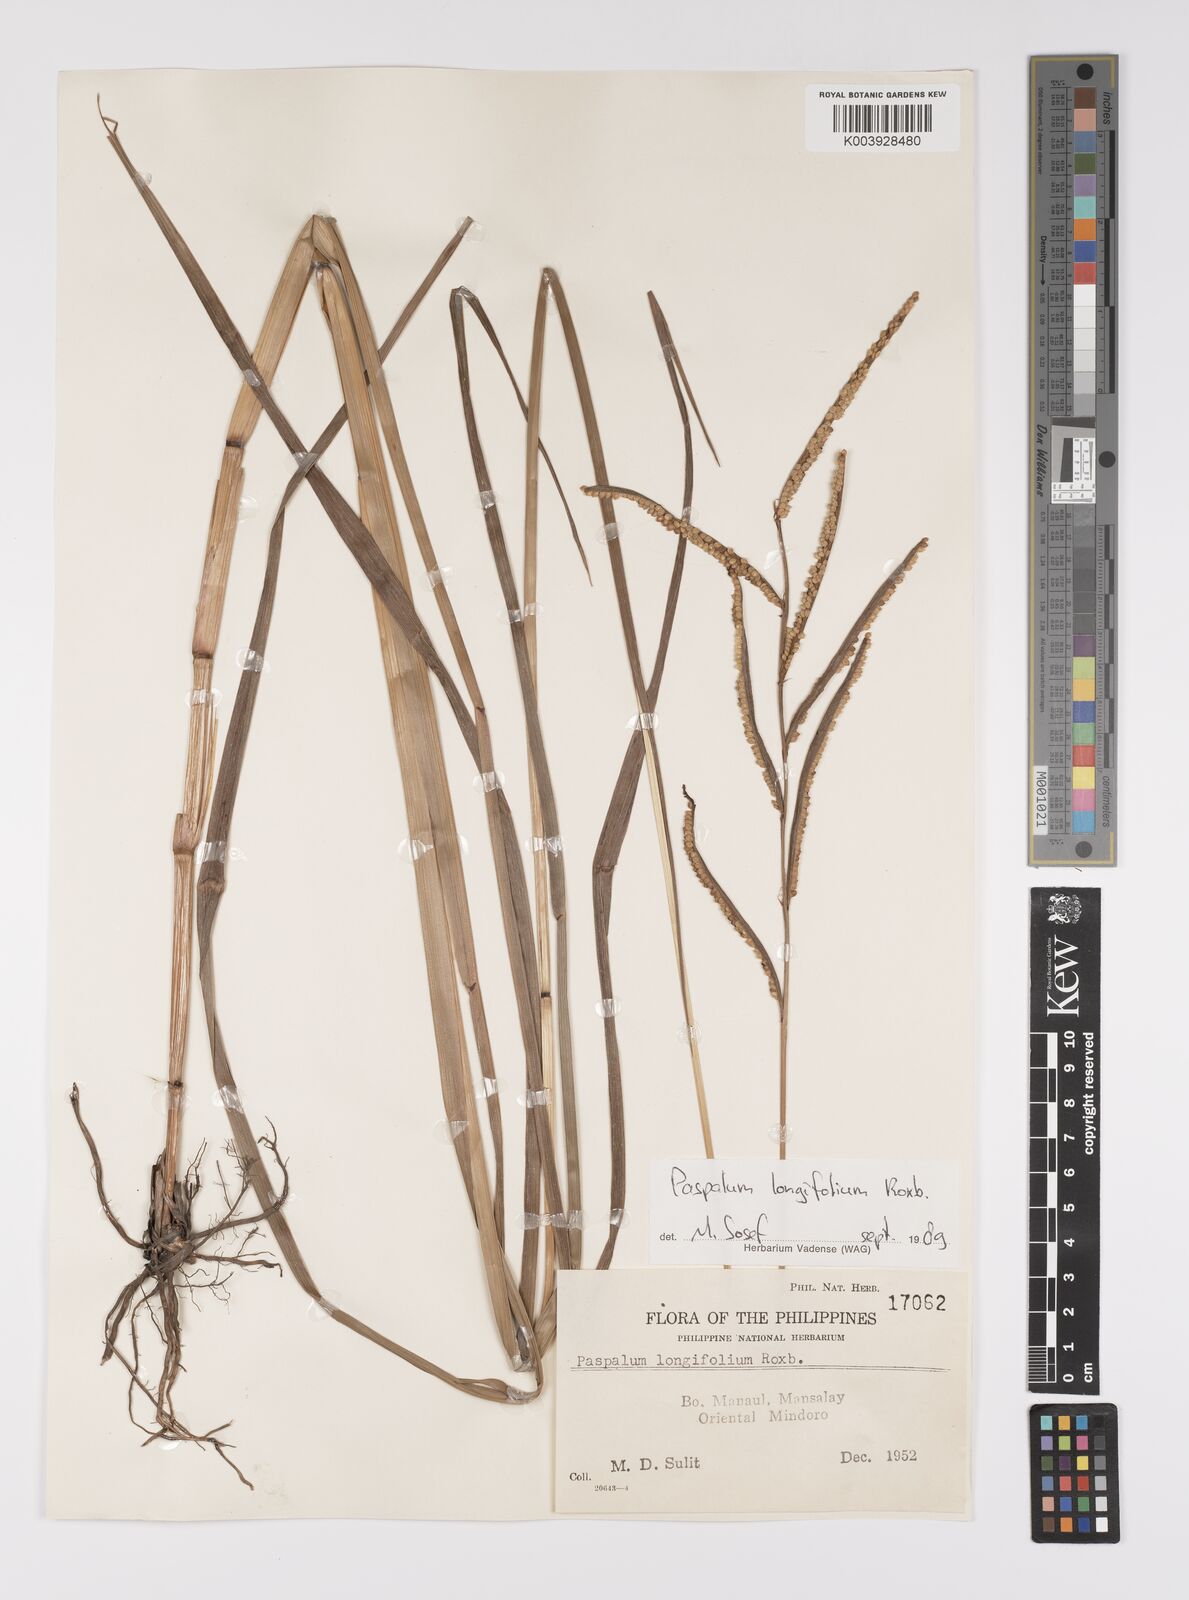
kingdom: Plantae
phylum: Tracheophyta
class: Liliopsida
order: Poales
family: Poaceae
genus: Paspalum
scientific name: Paspalum sumatrense
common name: Long-leaved paspalum
